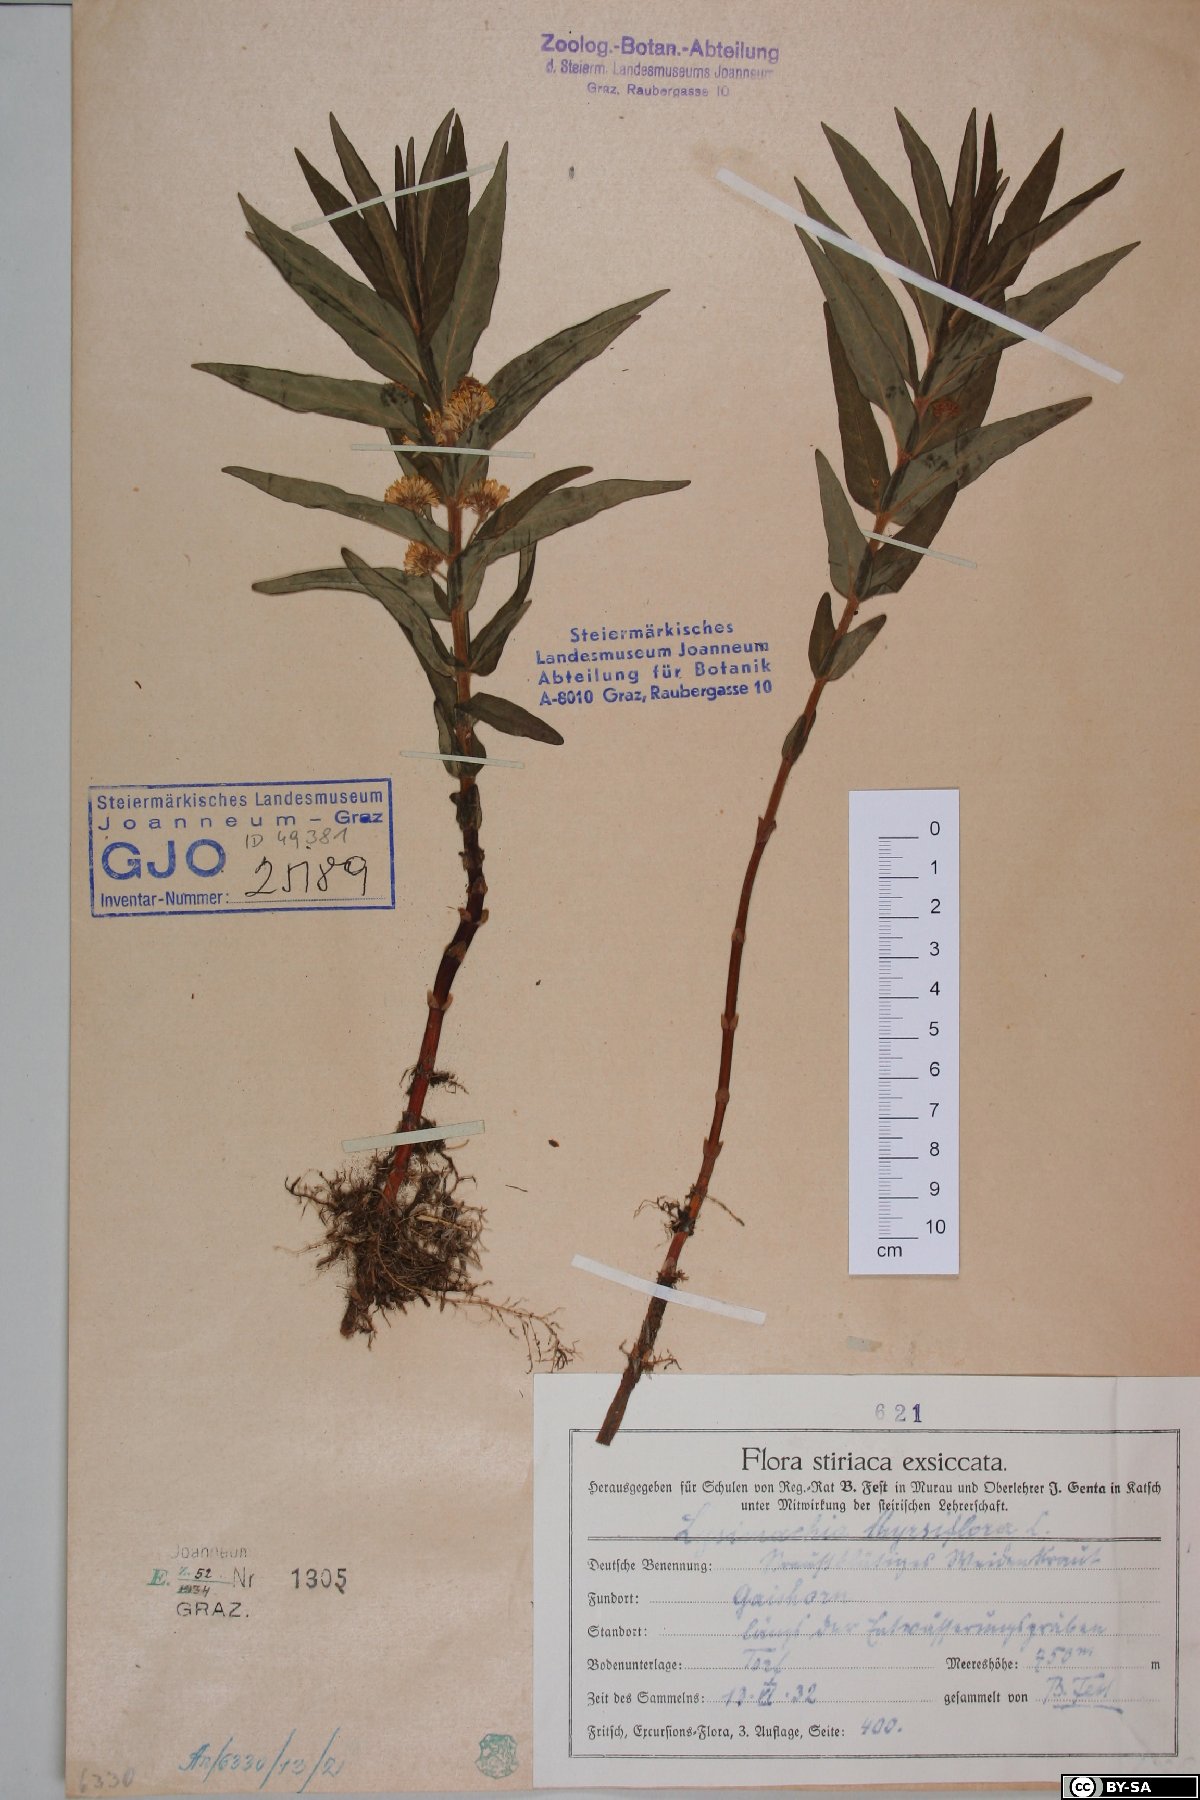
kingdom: Plantae
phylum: Tracheophyta
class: Magnoliopsida
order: Ericales
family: Primulaceae
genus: Lysimachia
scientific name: Lysimachia thyrsiflora
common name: Tufted loosestrife
